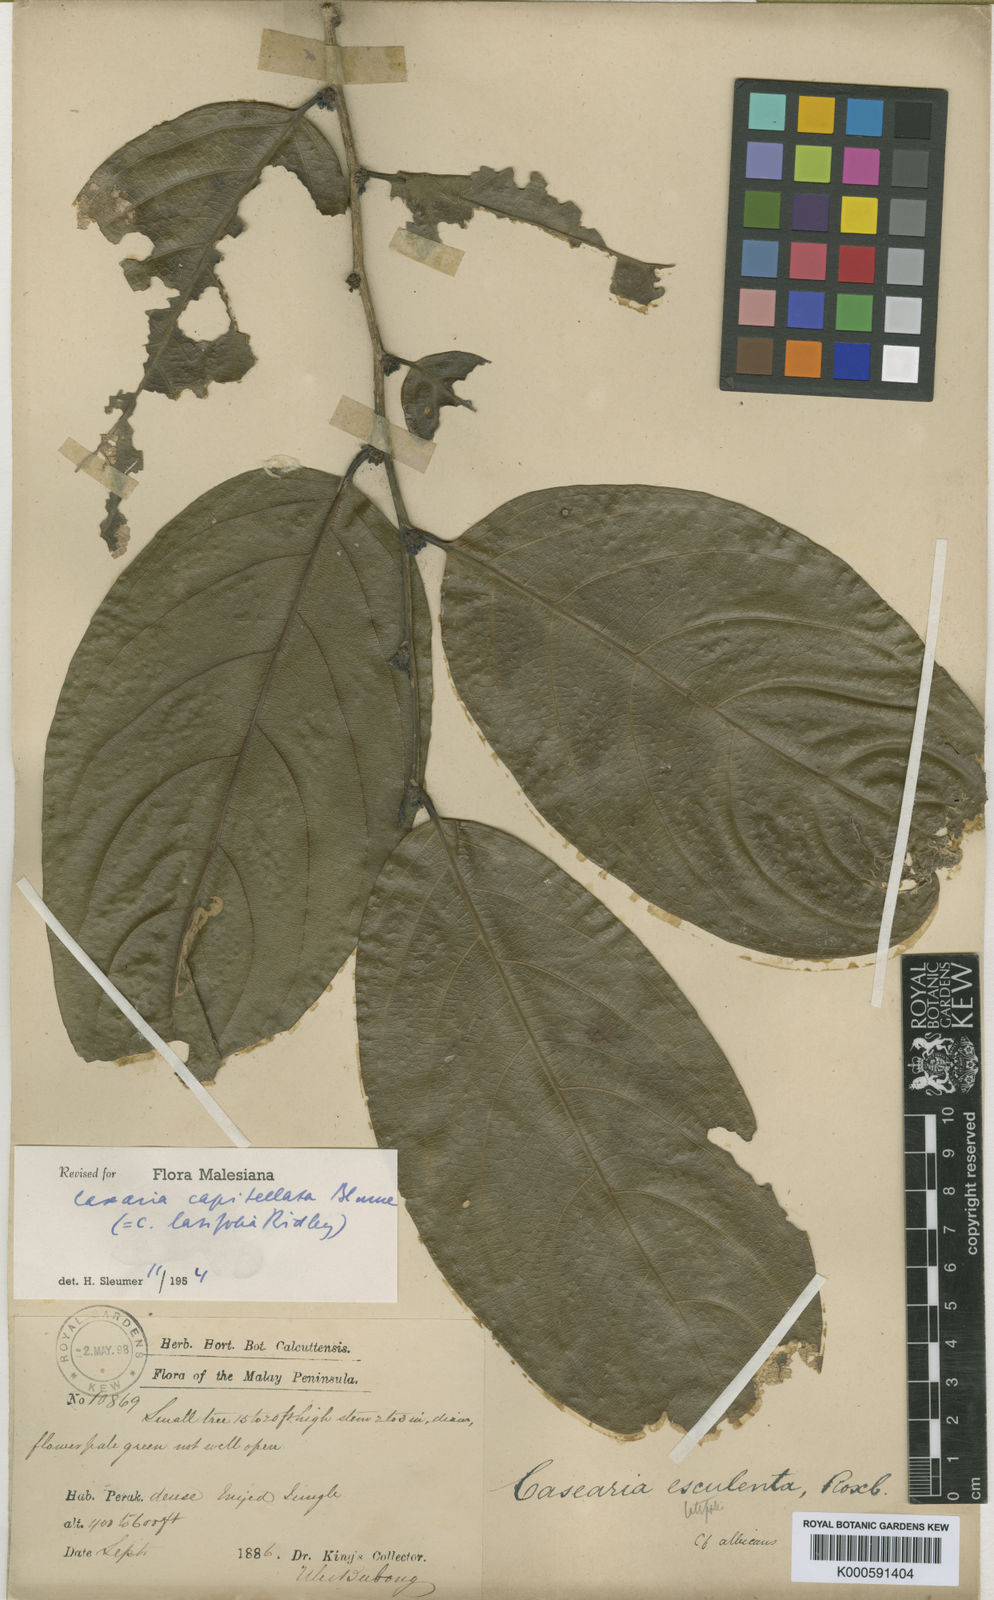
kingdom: Plantae
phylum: Tracheophyta
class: Magnoliopsida
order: Malpighiales
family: Salicaceae
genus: Casearia
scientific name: Casearia capitellata
